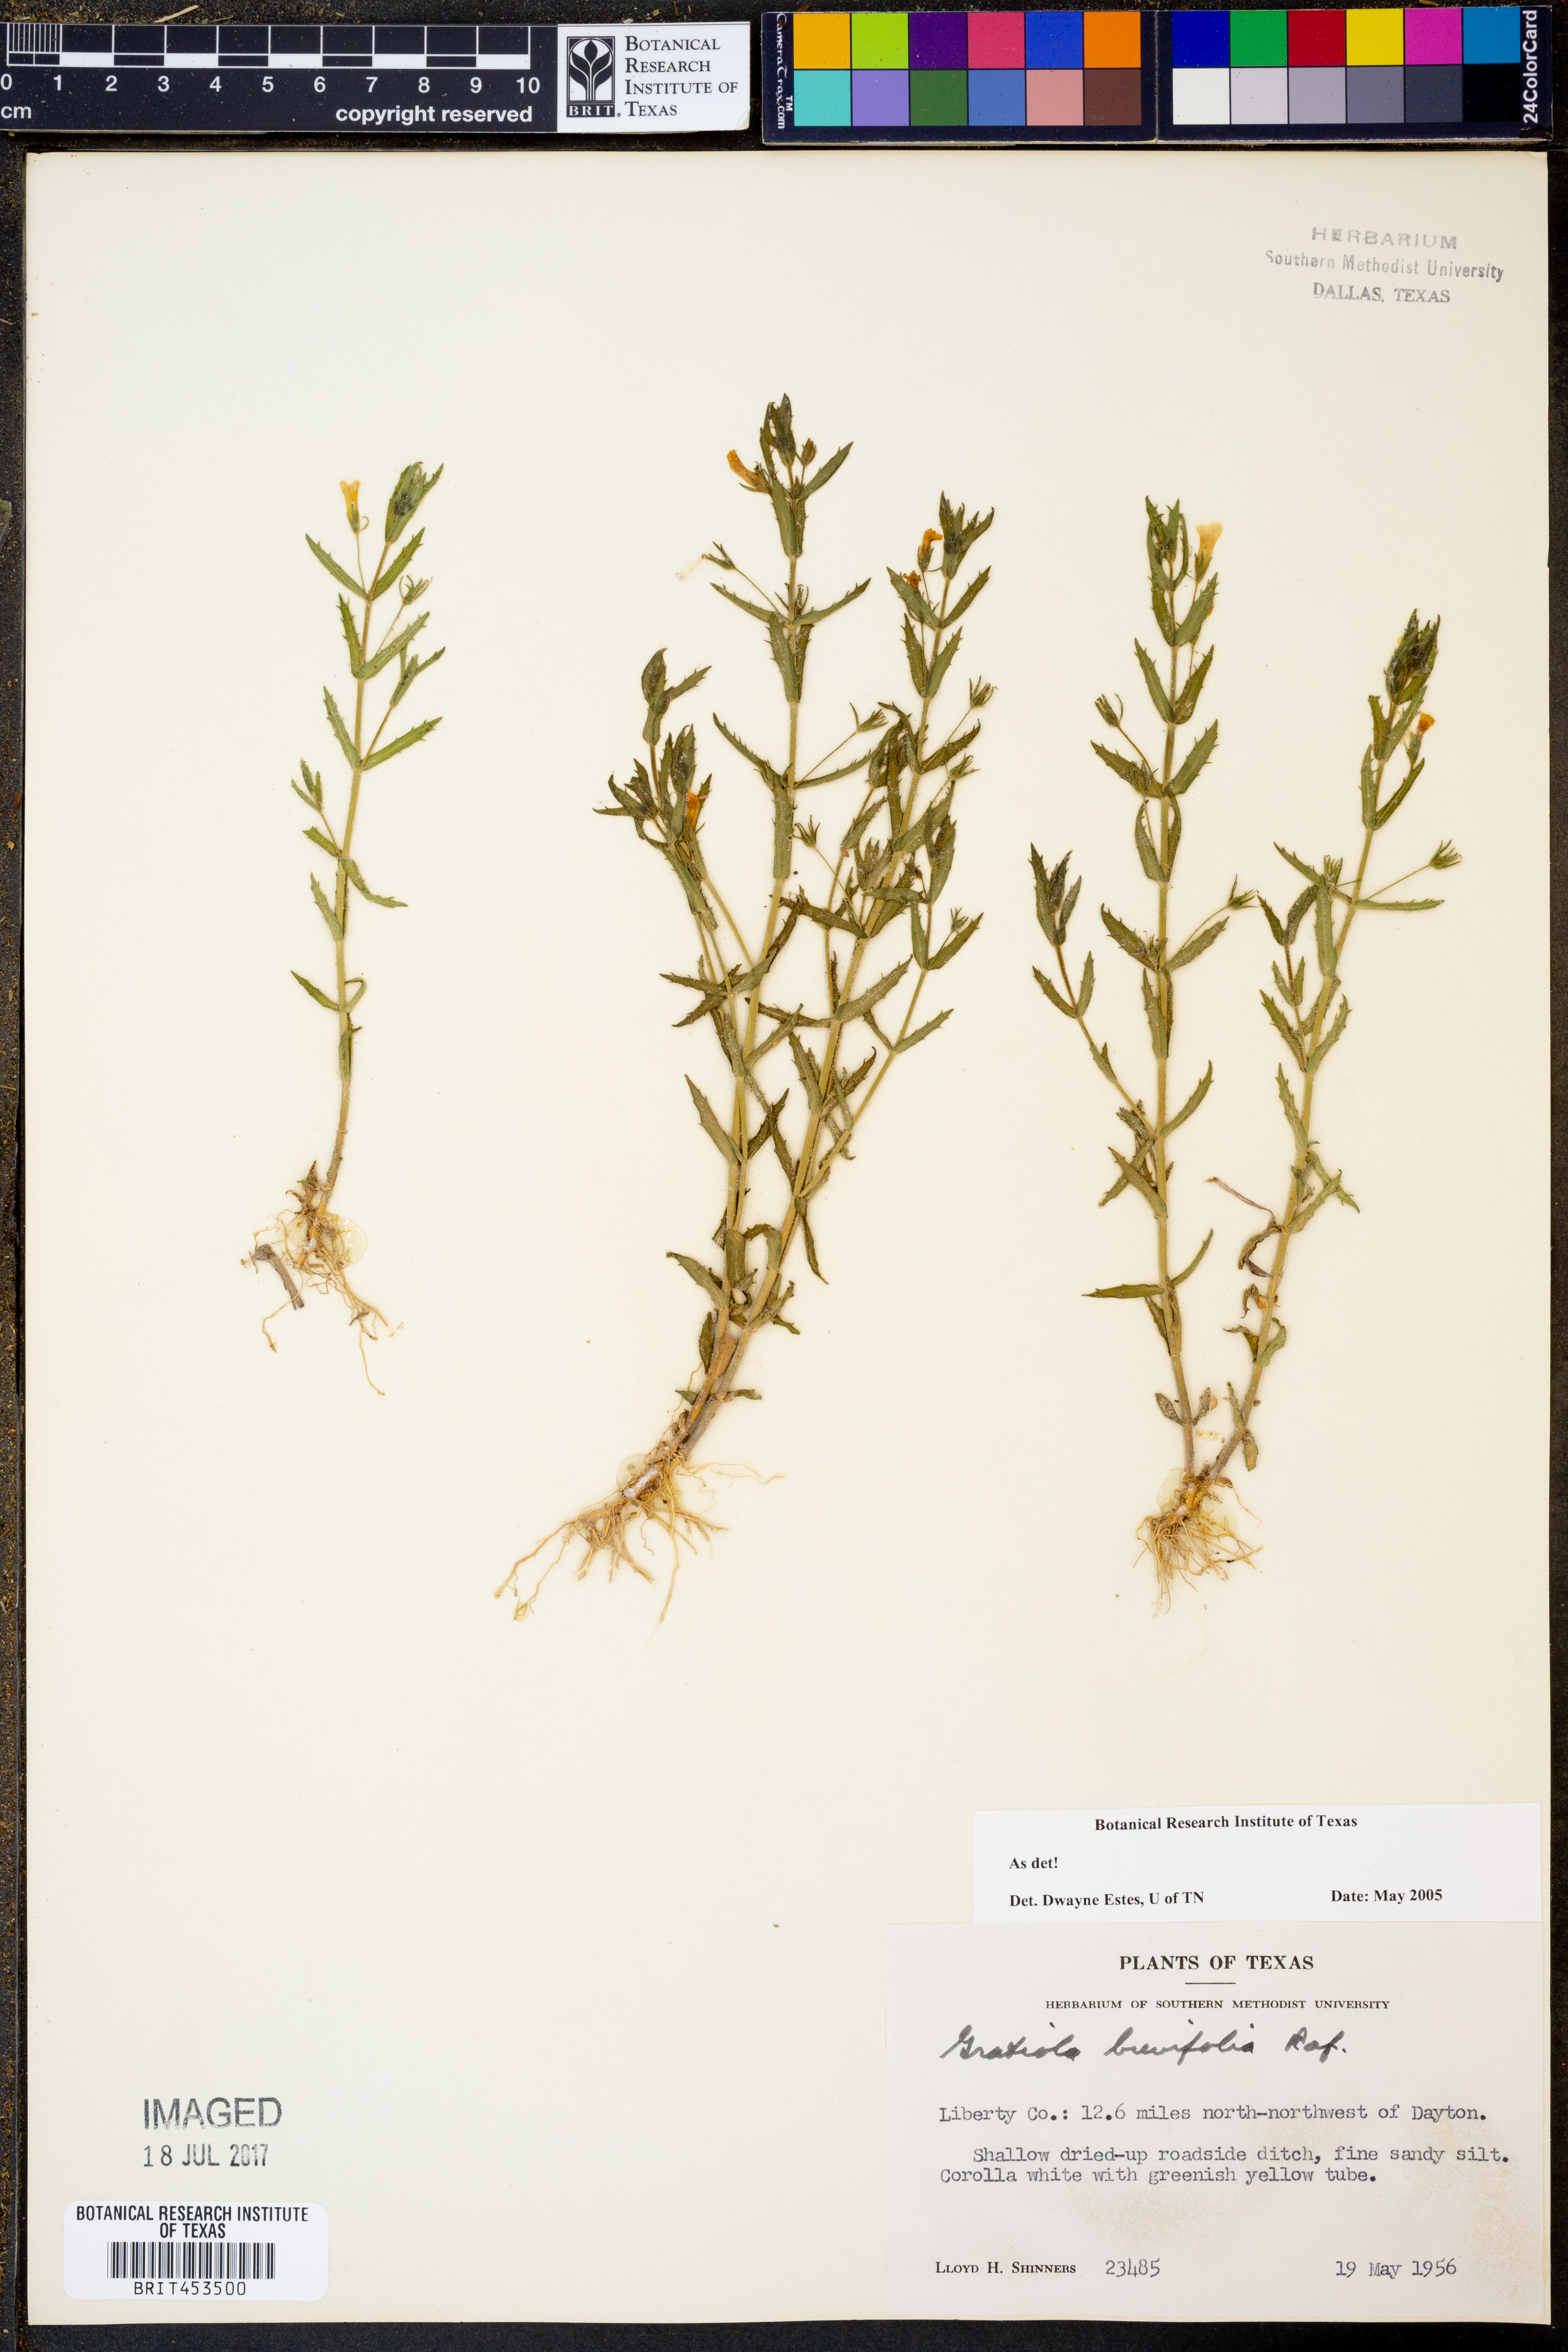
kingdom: Plantae
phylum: Tracheophyta
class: Magnoliopsida
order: Lamiales
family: Plantaginaceae
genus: Gratiola
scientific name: Gratiola brevifolia
